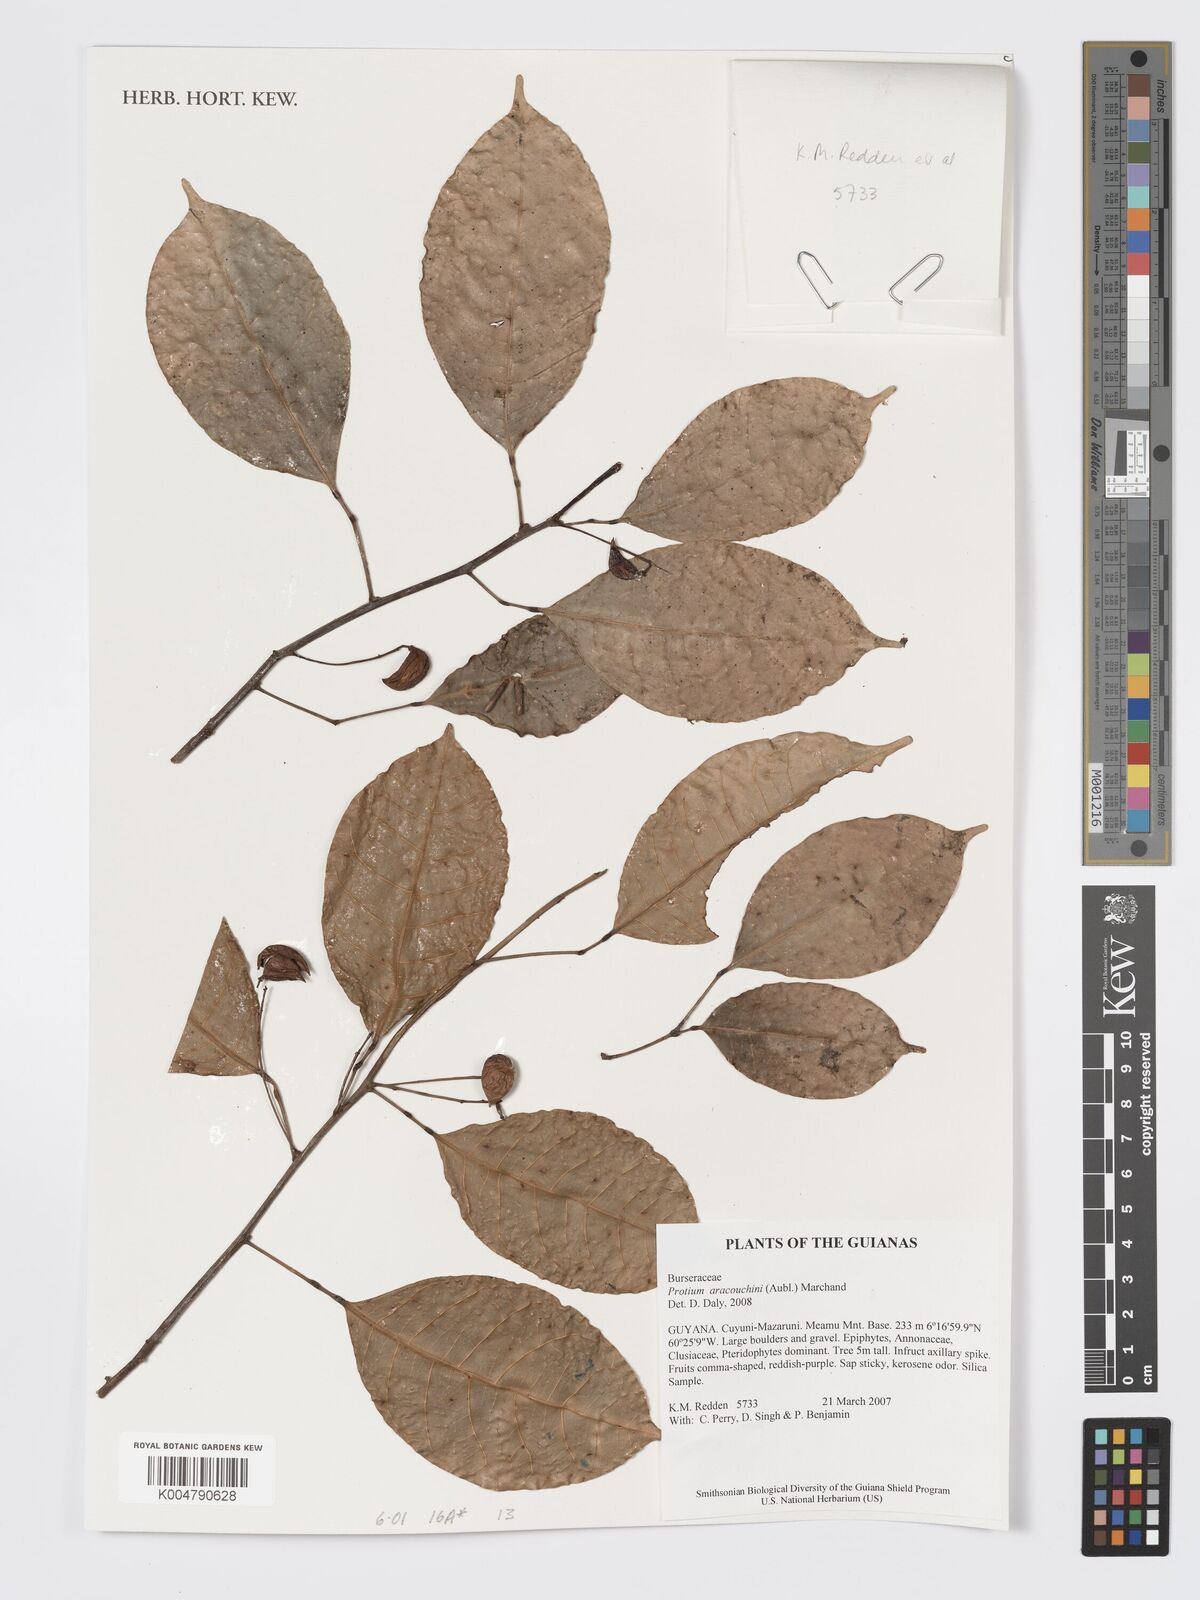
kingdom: Plantae
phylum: Tracheophyta
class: Magnoliopsida
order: Sapindales
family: Burseraceae
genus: Protium
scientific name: Protium aracouchini
